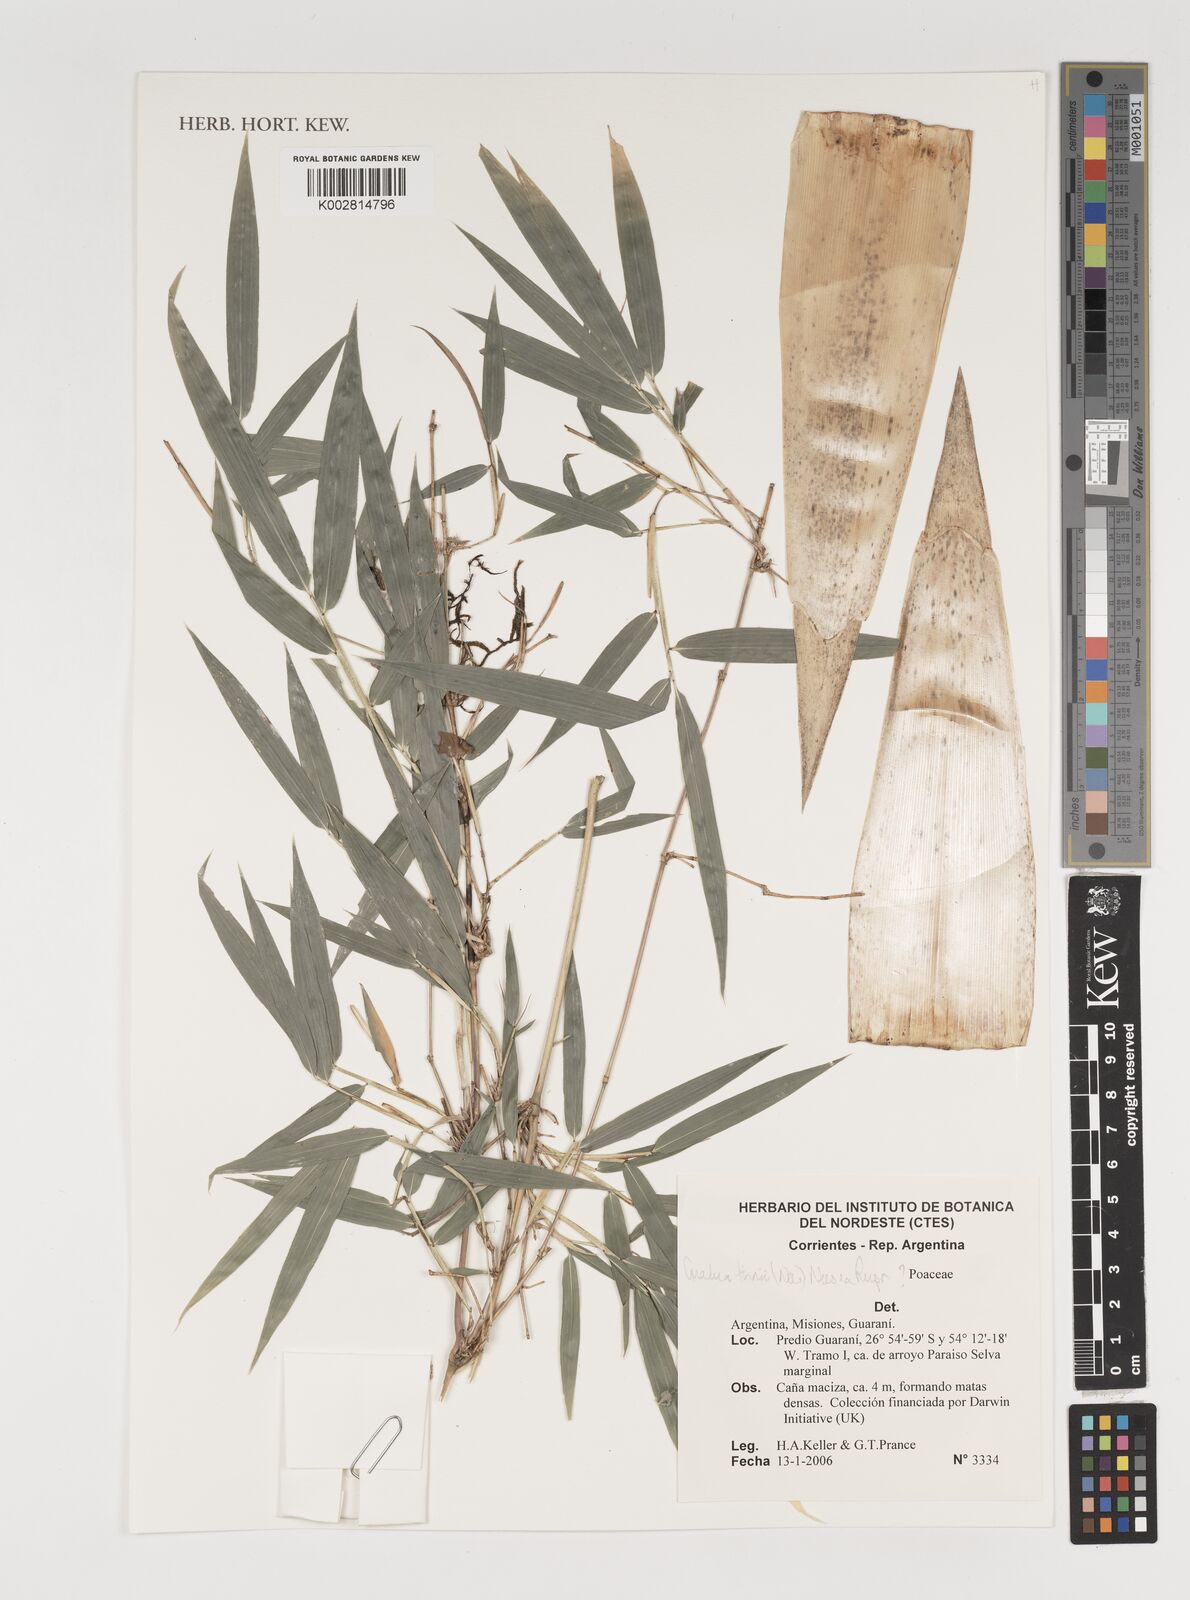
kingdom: Plantae
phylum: Tracheophyta
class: Liliopsida
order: Poales
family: Poaceae
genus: Guadua
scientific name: Guadua trinii
